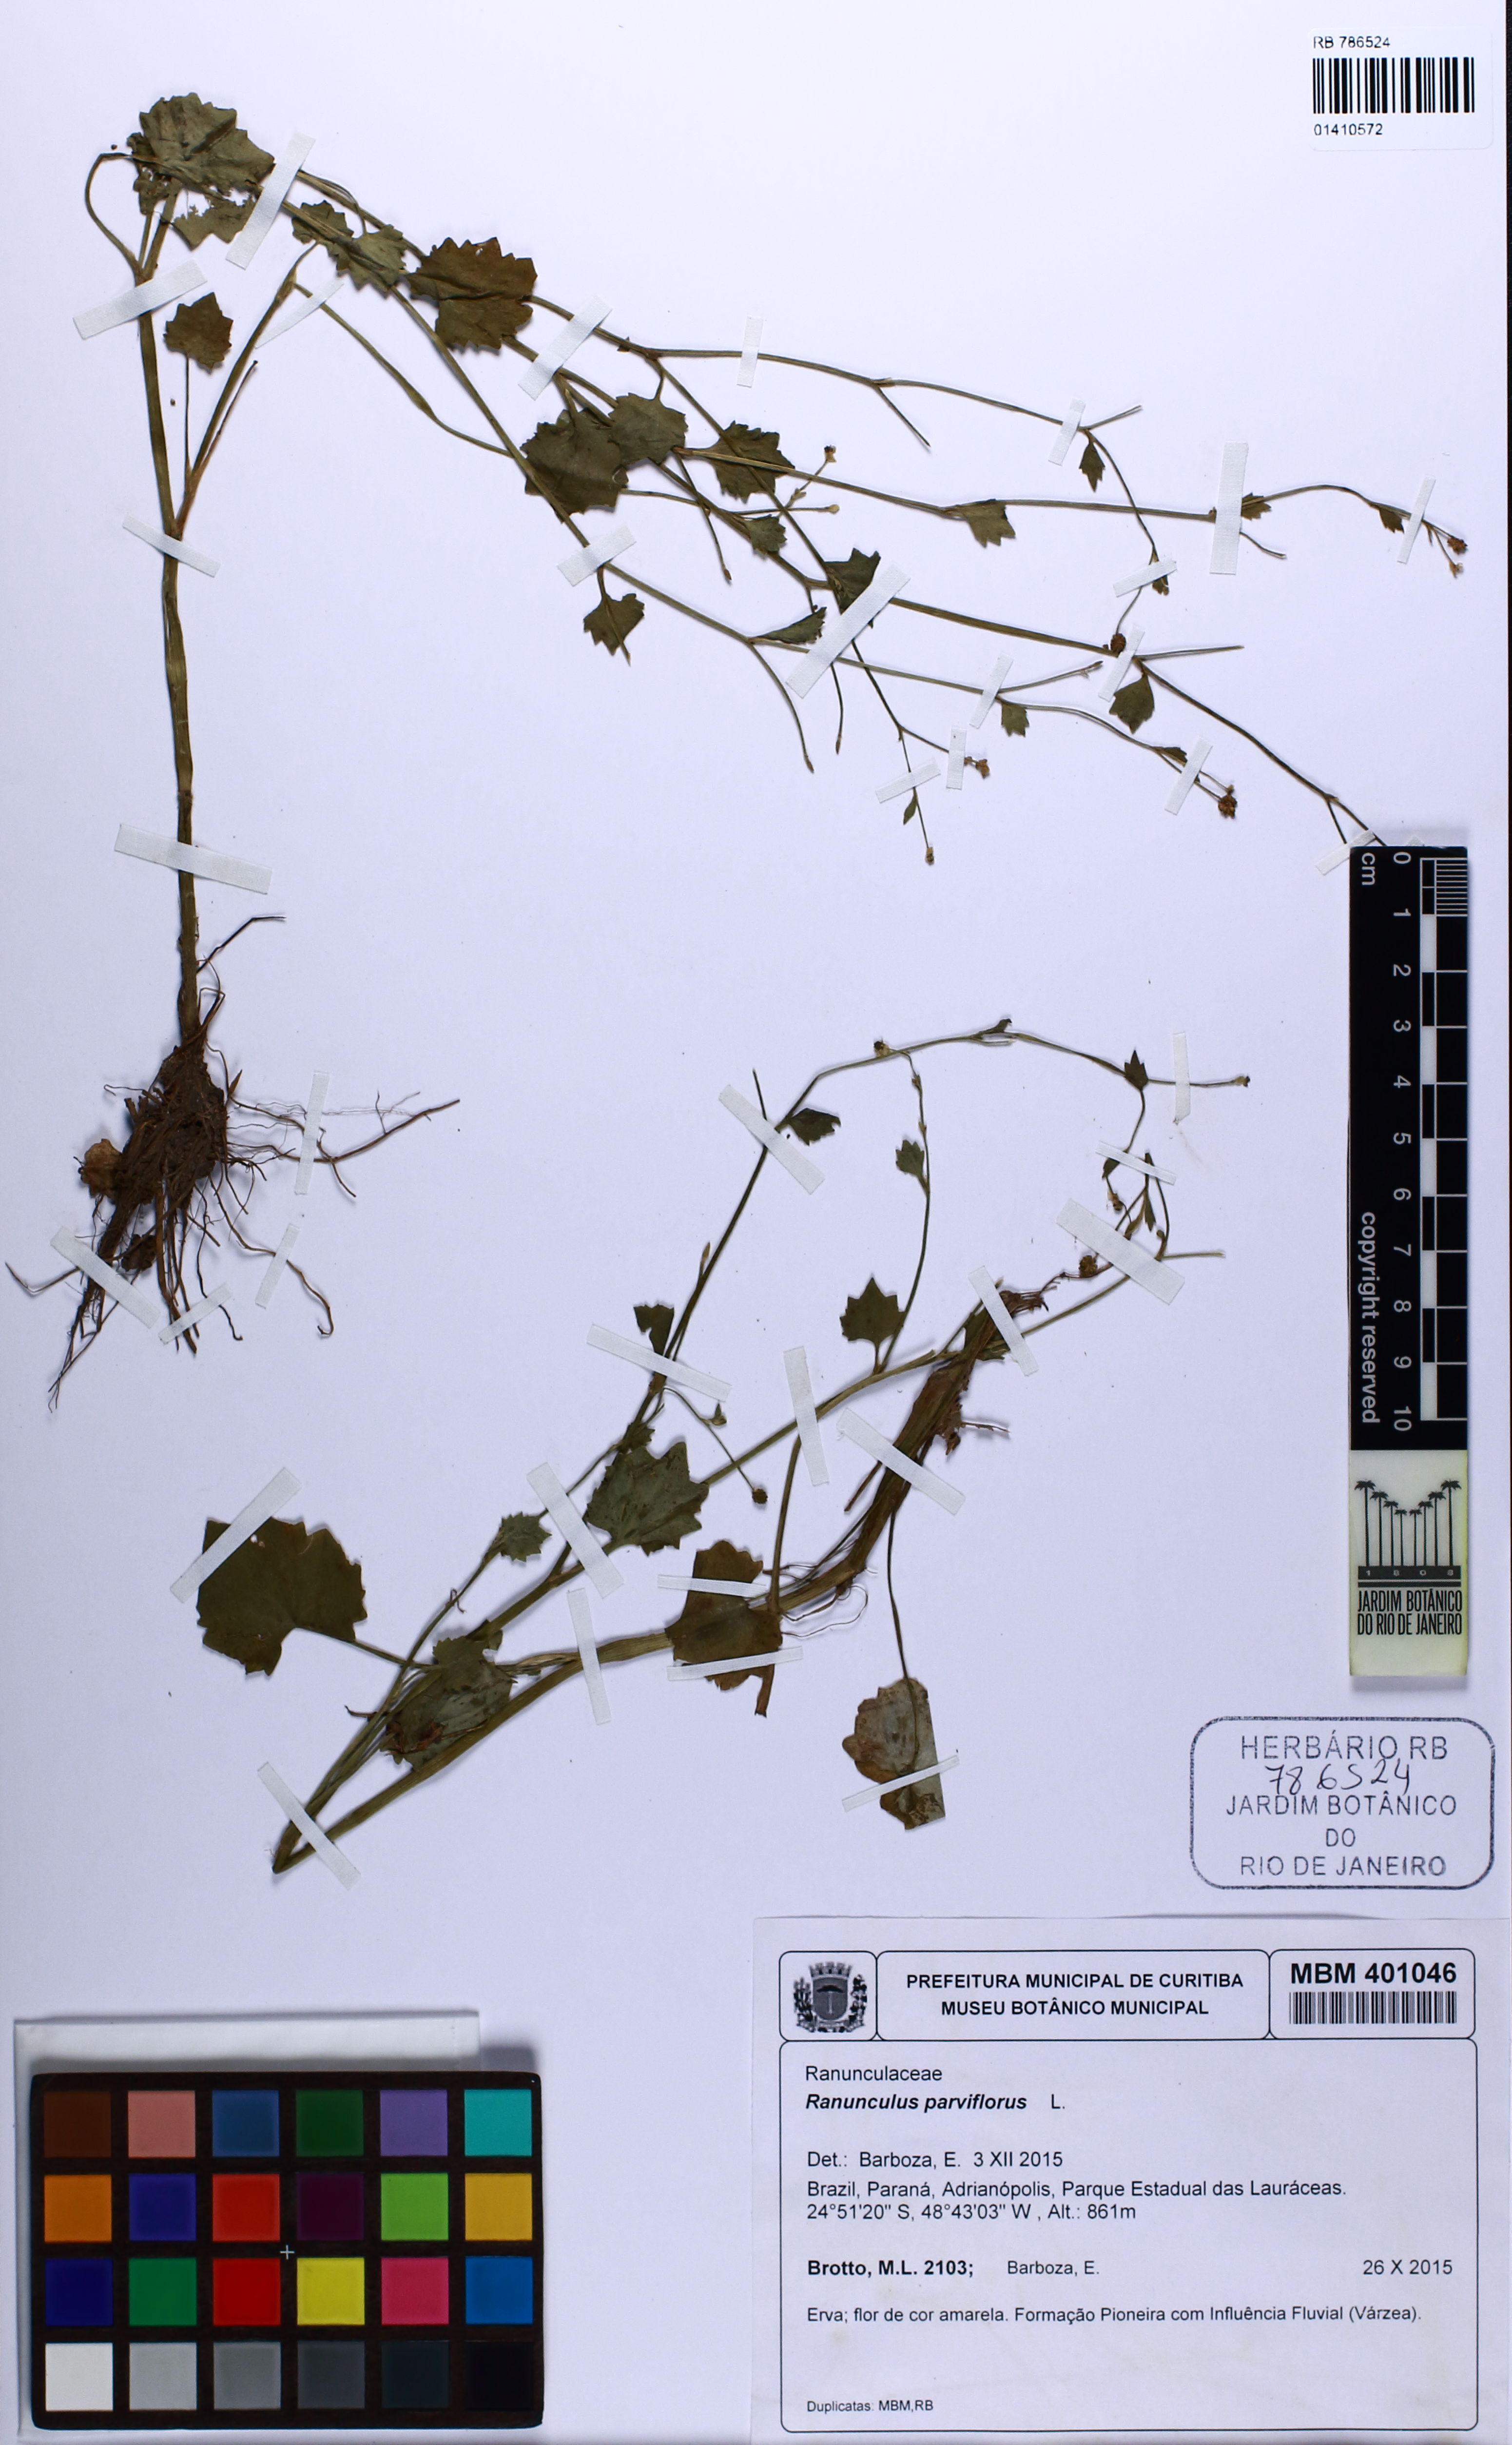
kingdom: Plantae
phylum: Tracheophyta
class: Magnoliopsida
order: Ranunculales
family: Ranunculaceae
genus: Ranunculus
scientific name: Ranunculus parnassiifolius
